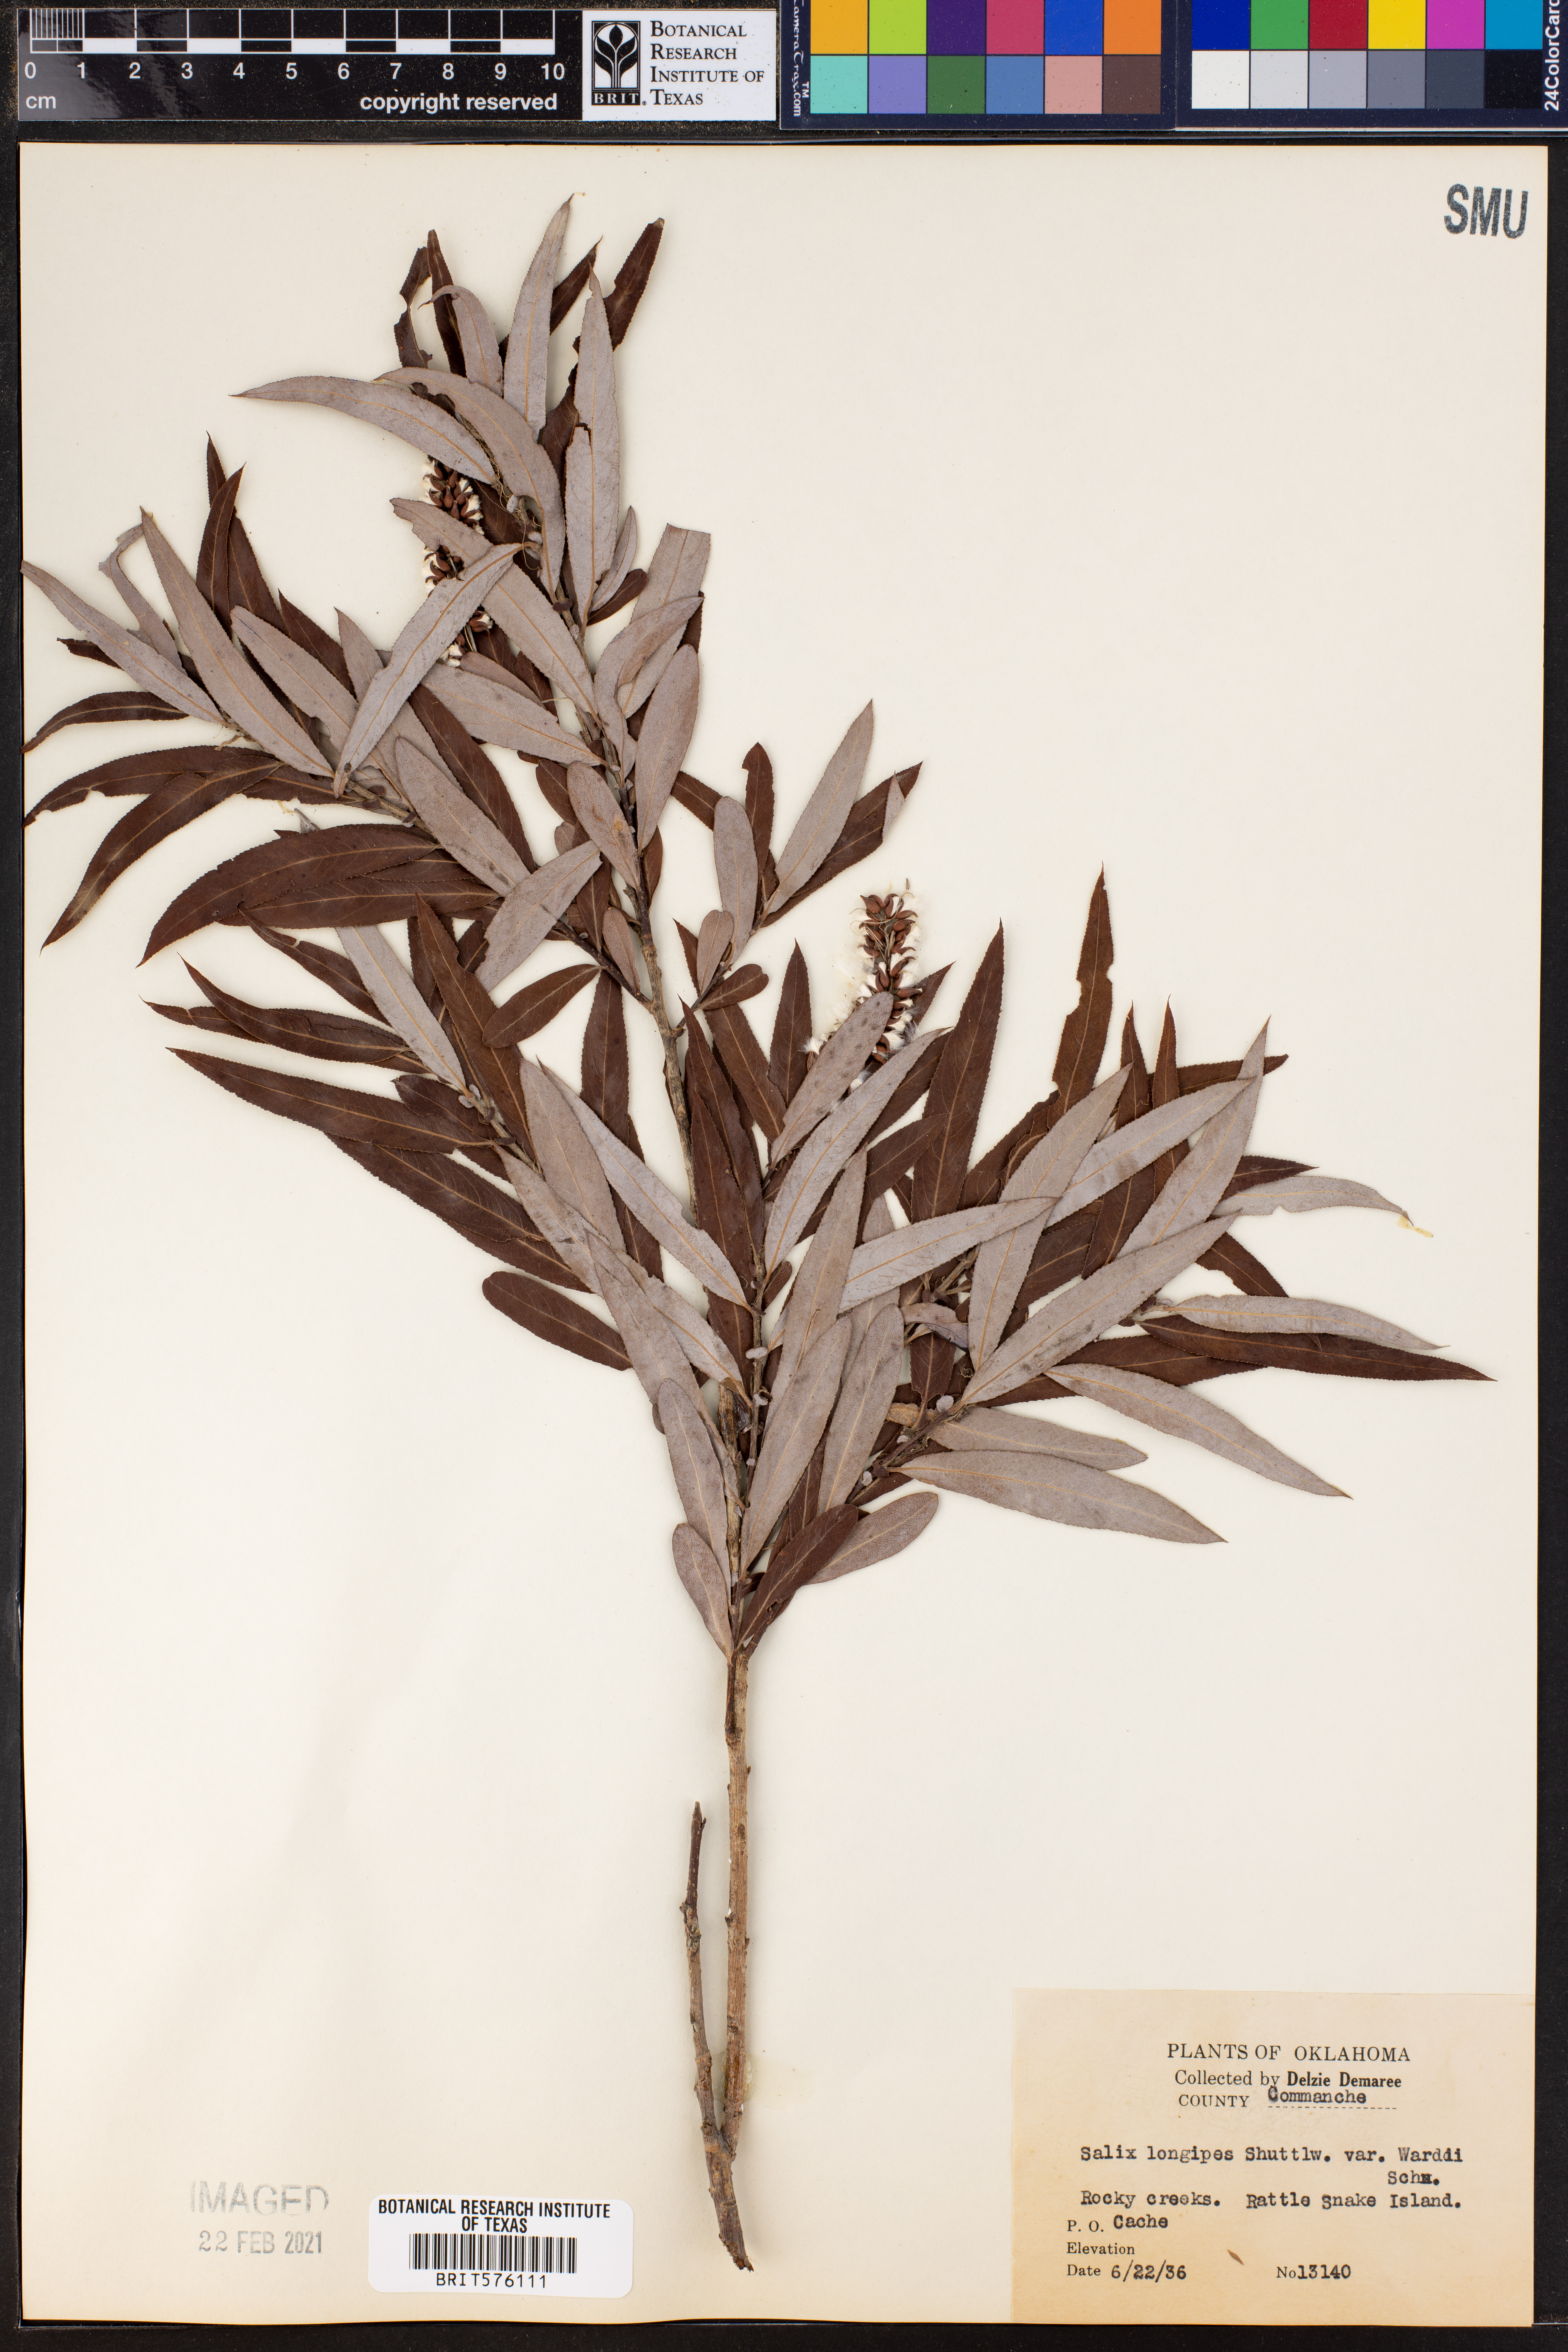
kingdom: Plantae
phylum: Tracheophyta
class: Magnoliopsida
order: Malpighiales
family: Salicaceae
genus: Salix
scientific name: Salix caroliniana
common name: Carolina willow
